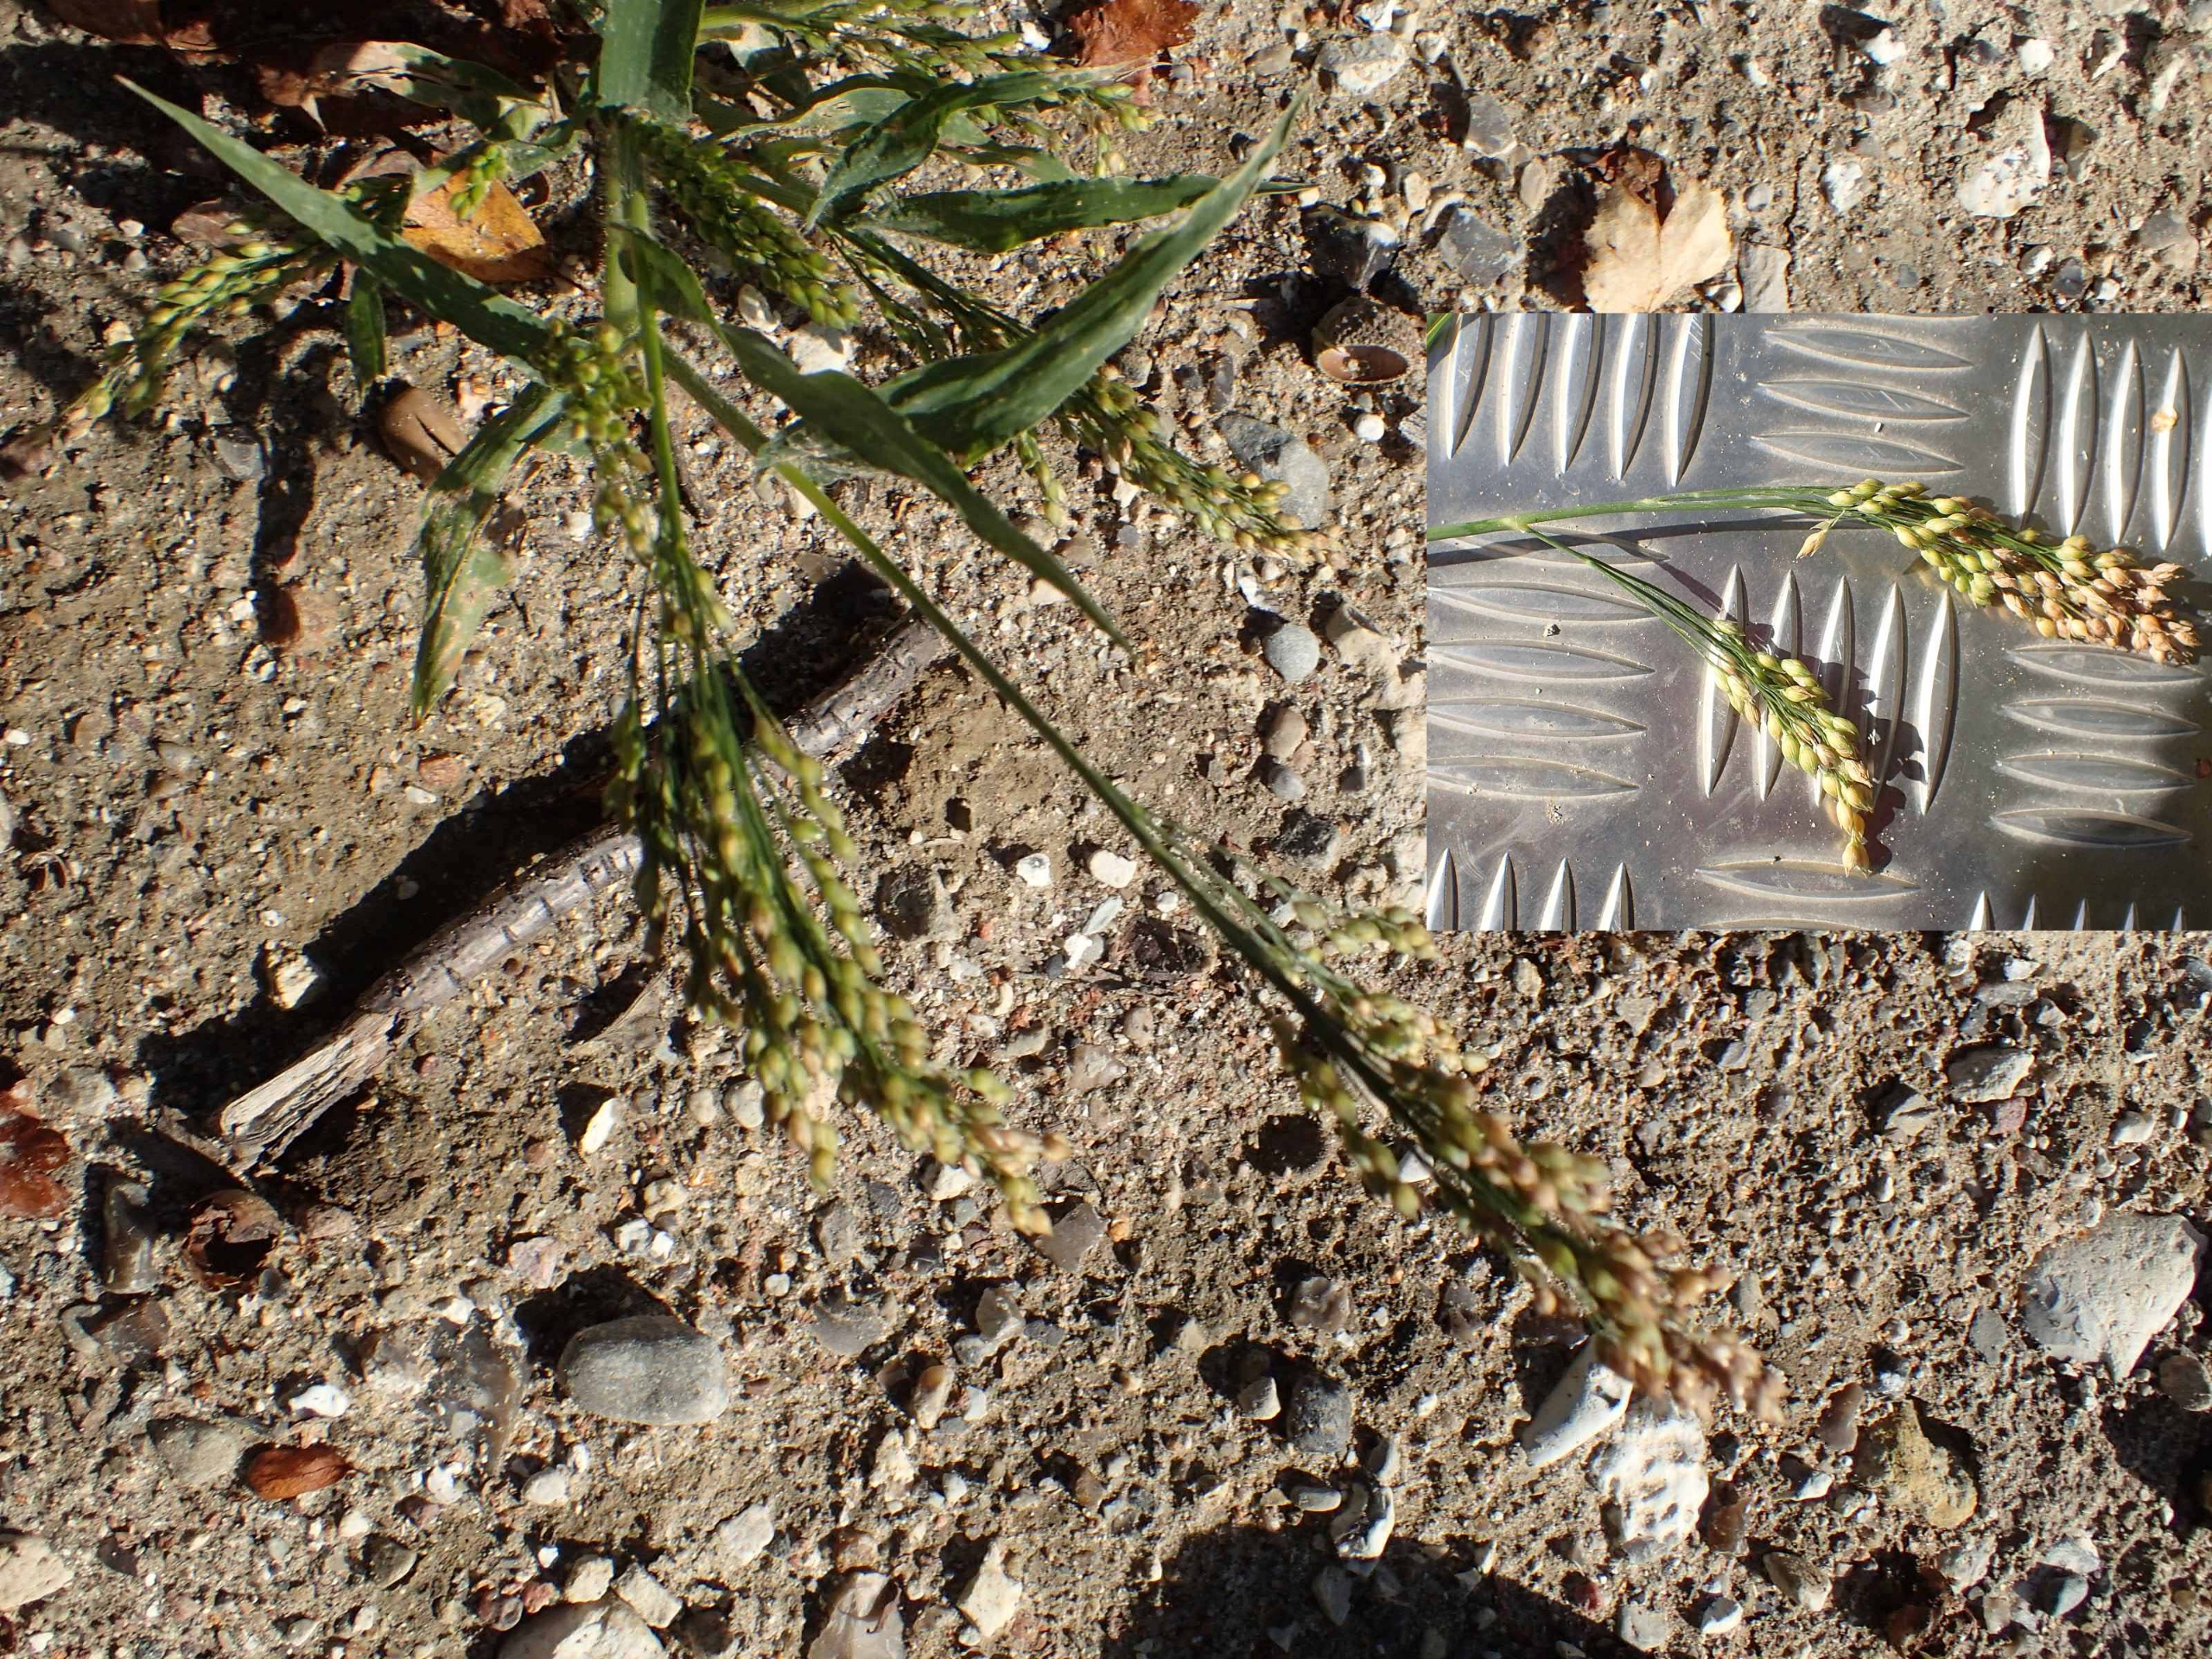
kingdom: Plantae
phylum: Tracheophyta
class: Liliopsida
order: Poales
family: Poaceae
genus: Panicum
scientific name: Panicum miliaceum
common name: Almindelig hirse
